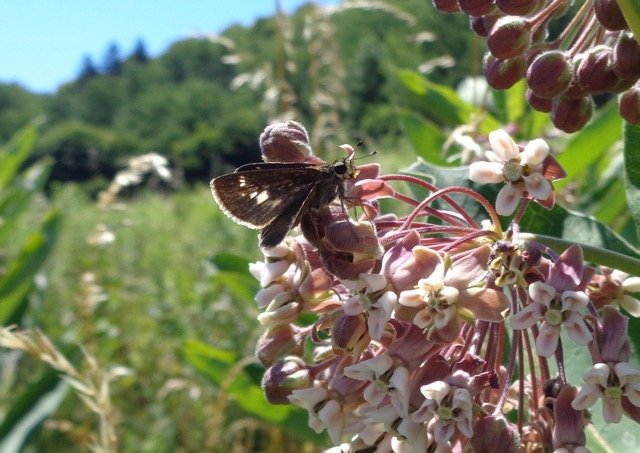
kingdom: Animalia
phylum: Arthropoda
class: Insecta
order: Lepidoptera
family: Hesperiidae
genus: Vernia
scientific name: Vernia verna
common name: Little Glassywing
